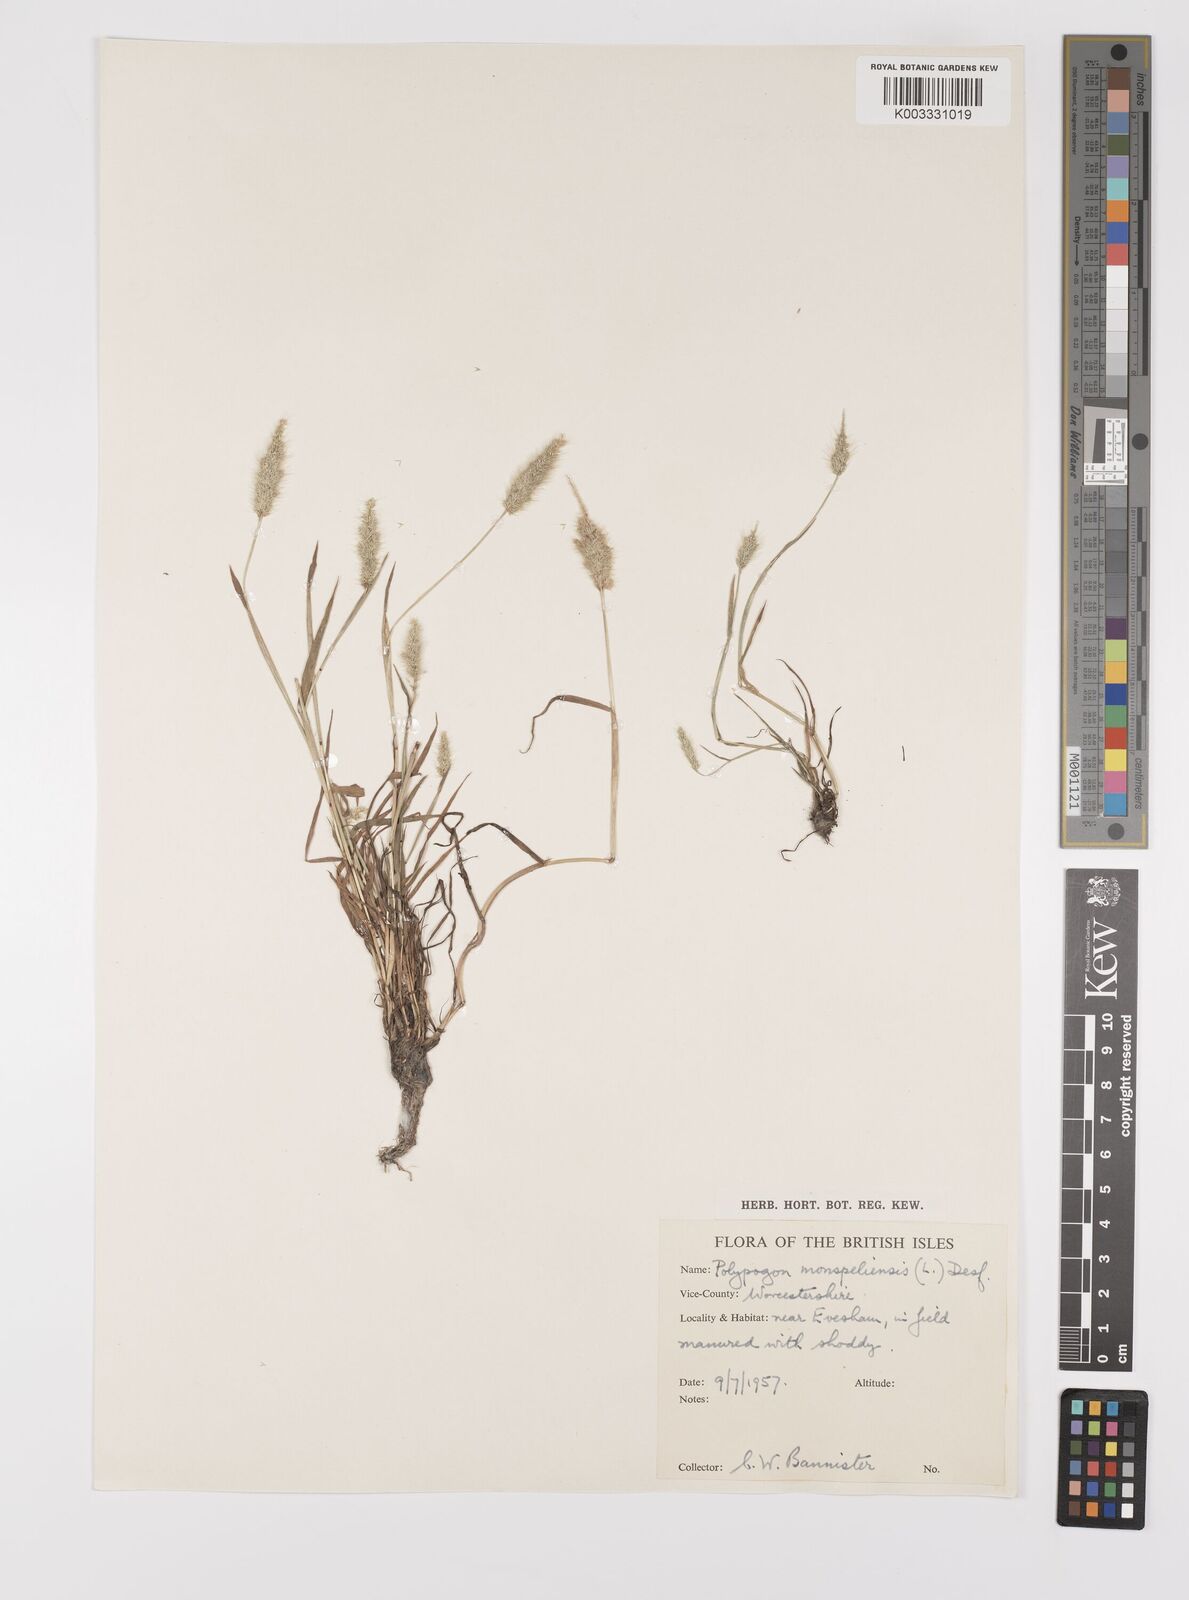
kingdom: Plantae
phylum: Tracheophyta
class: Liliopsida
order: Poales
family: Poaceae
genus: Polypogon
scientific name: Polypogon monspeliensis
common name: Annual rabbitsfoot grass
